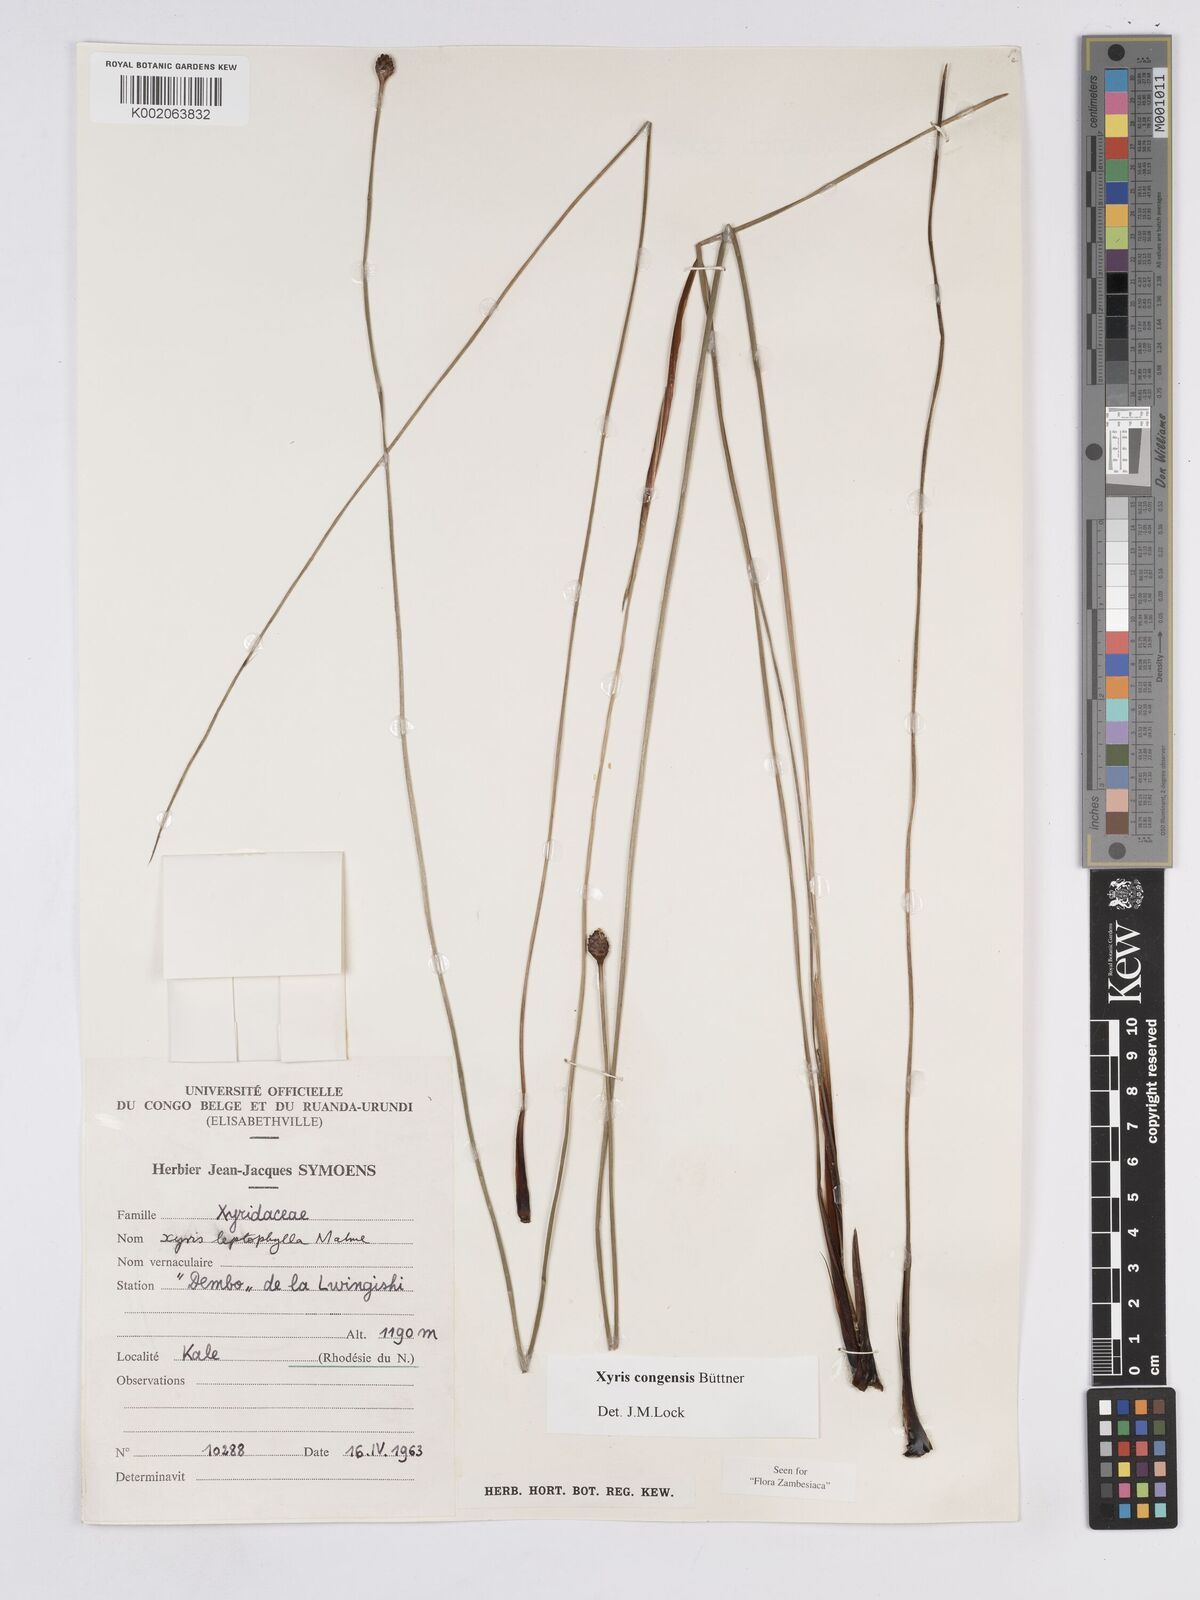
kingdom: Plantae
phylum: Tracheophyta
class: Liliopsida
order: Poales
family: Xyridaceae
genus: Xyris
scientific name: Xyris congensis
